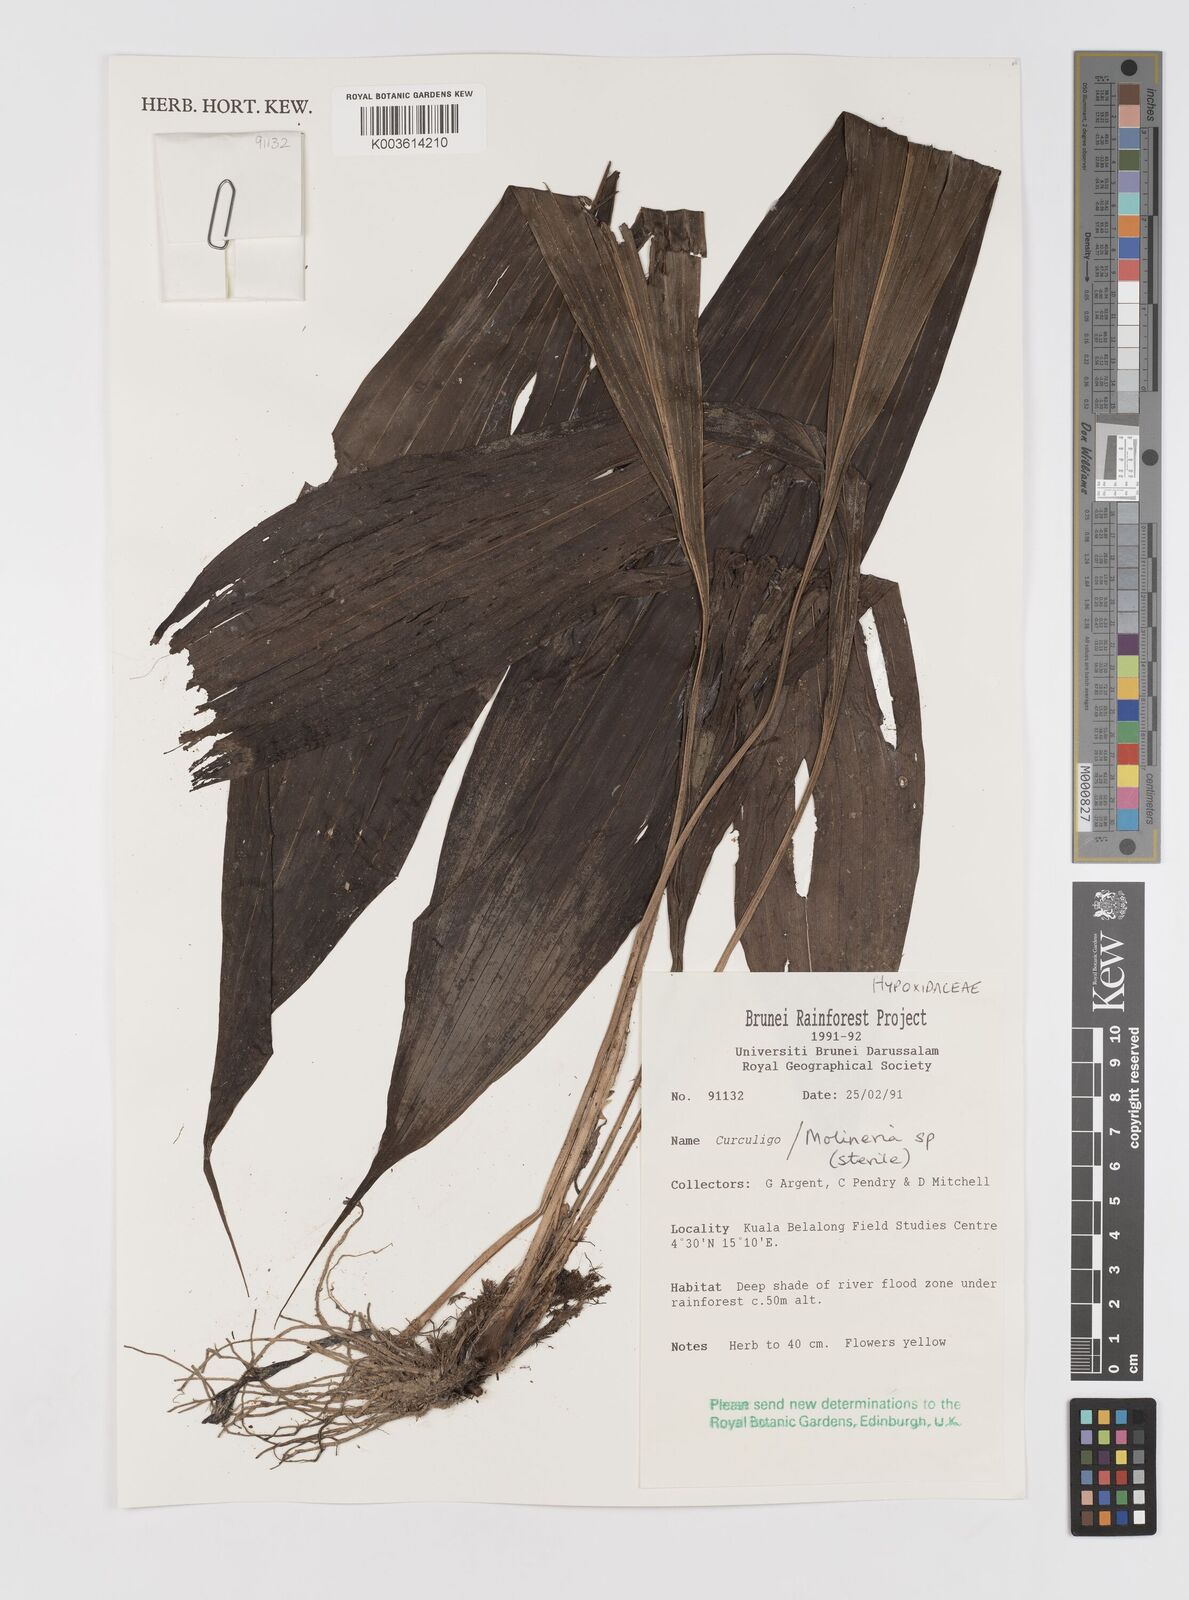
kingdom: Plantae
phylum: Tracheophyta
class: Liliopsida
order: Asparagales
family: Hypoxidaceae
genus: Curculigo
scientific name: Curculigo
